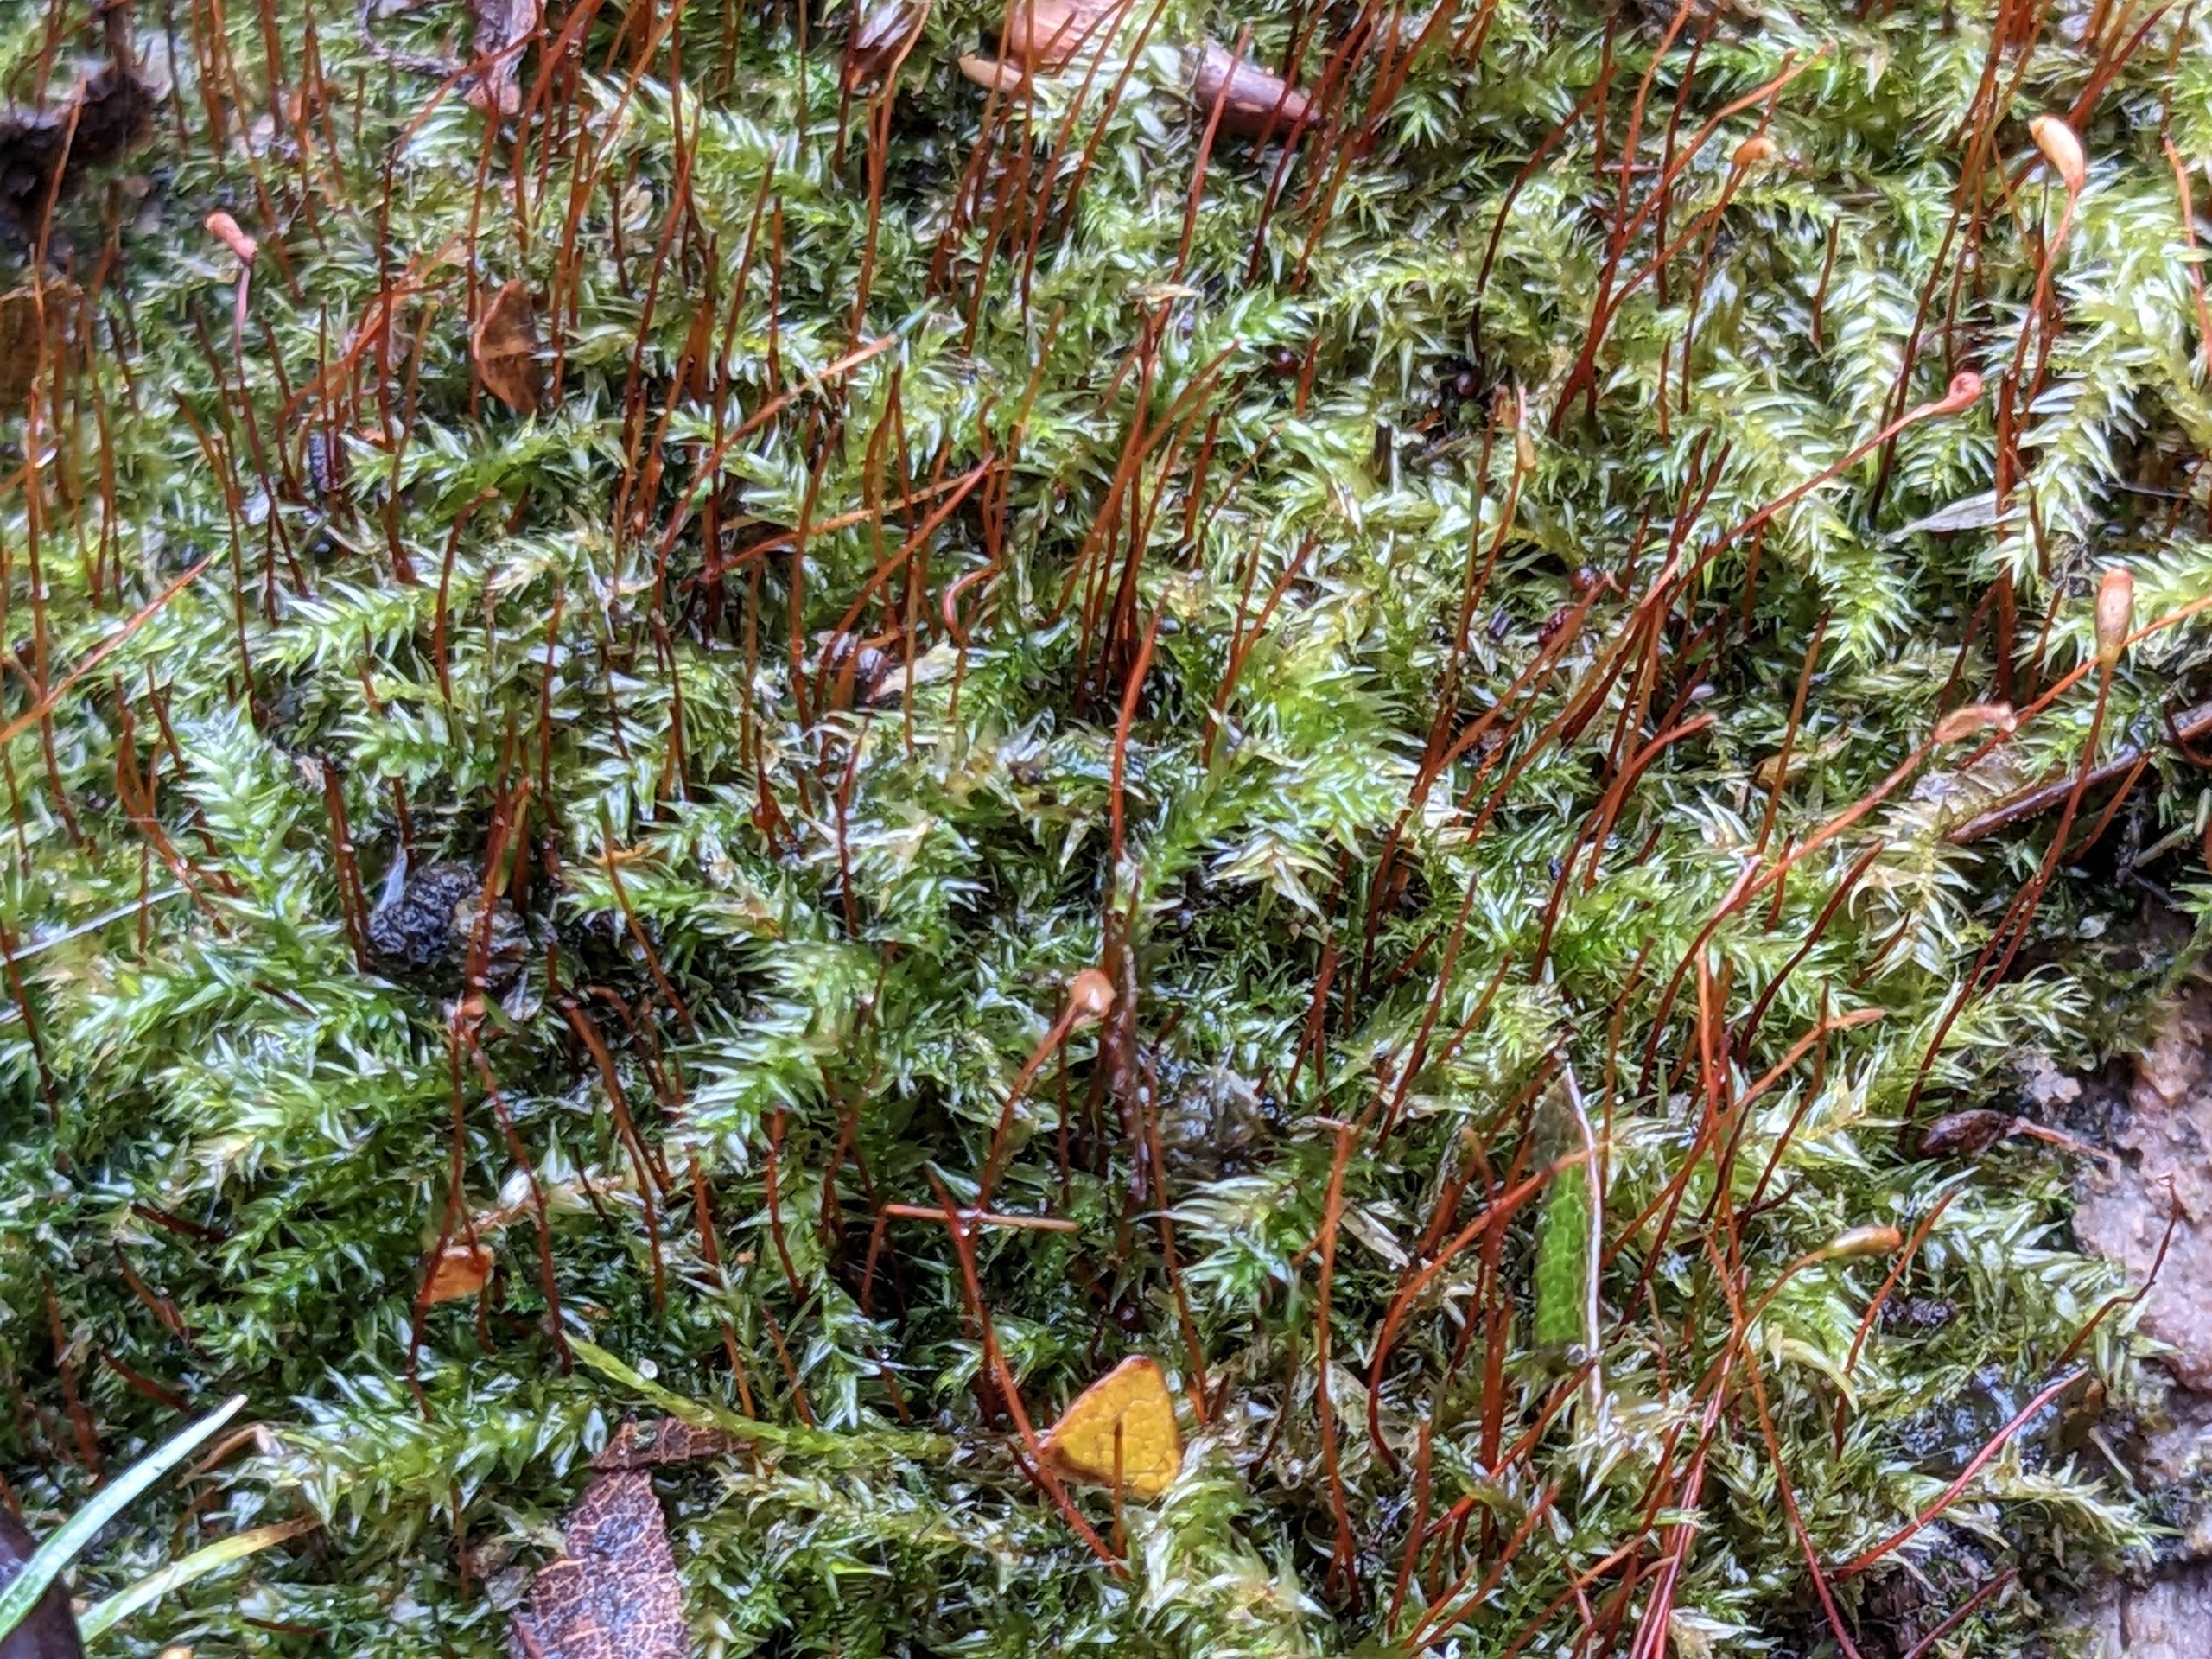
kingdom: Plantae
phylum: Bryophyta
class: Bryopsida
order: Hypnales
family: Amblystegiaceae
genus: Leptodictyum
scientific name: Leptodictyum riparium
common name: Stor pytmos
